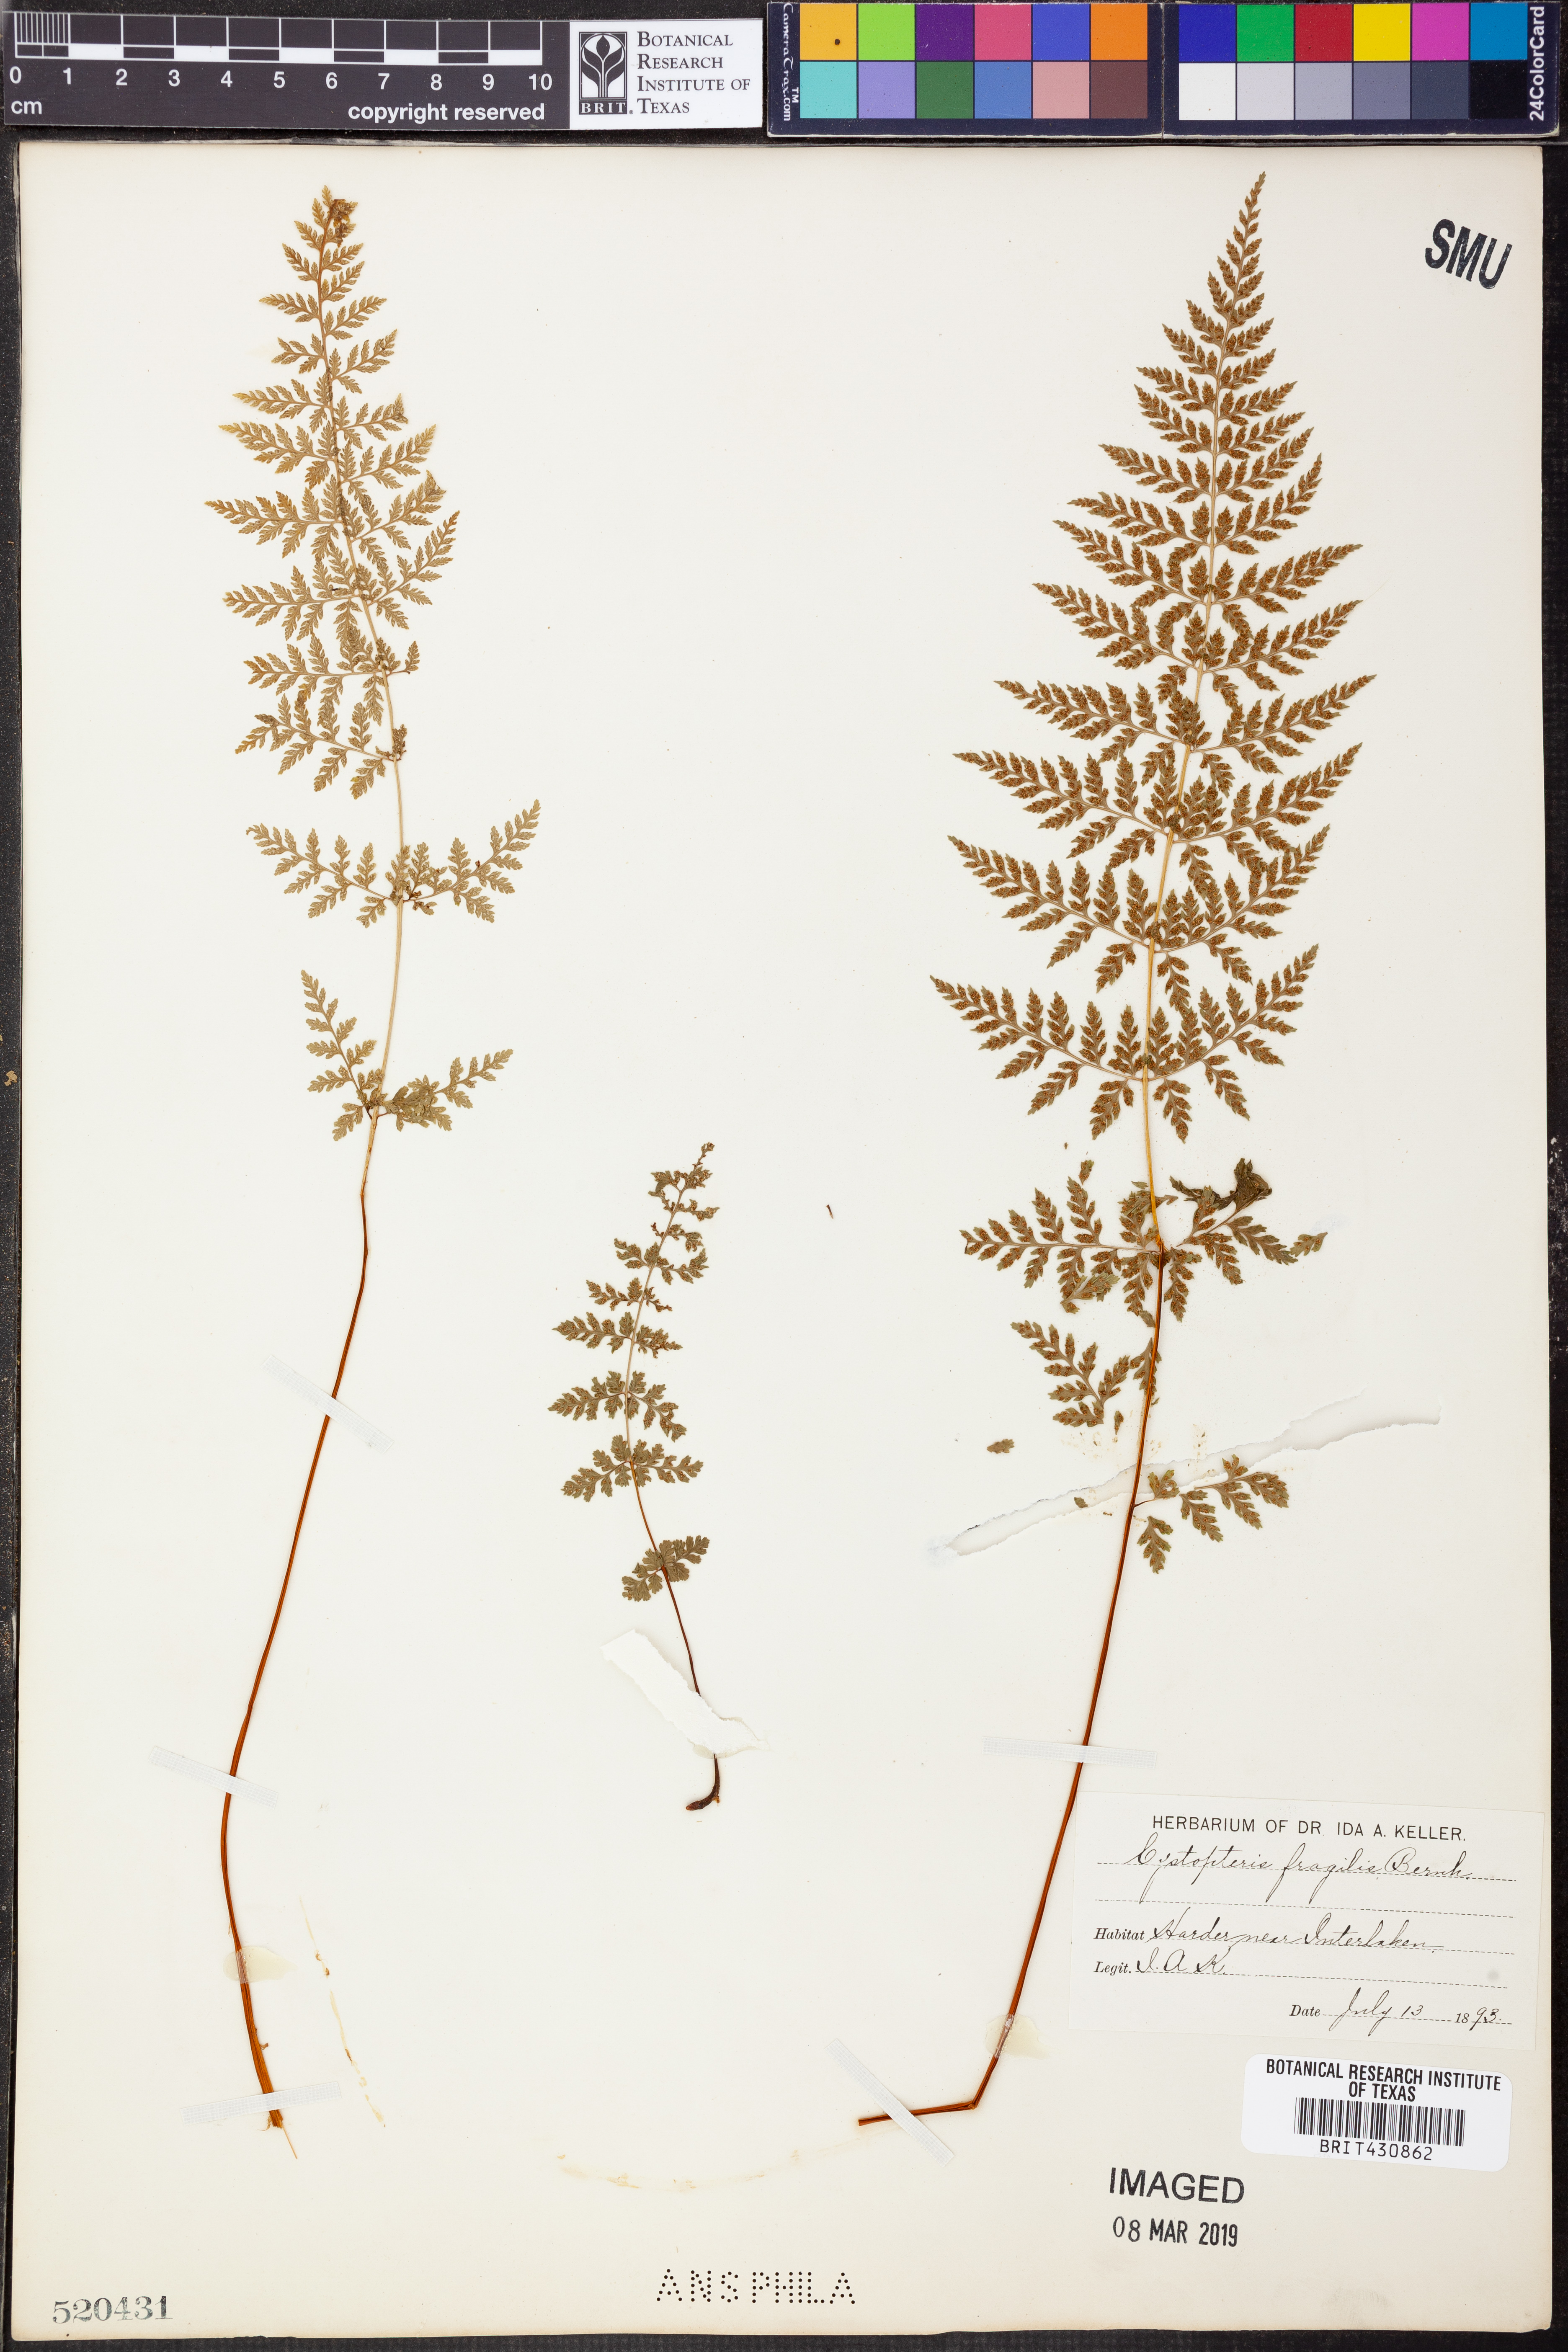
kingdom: Plantae
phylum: Tracheophyta
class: Polypodiopsida
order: Polypodiales
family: Cystopteridaceae
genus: Cystopteris
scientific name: Cystopteris fragilis
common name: Brittle bladder fern
